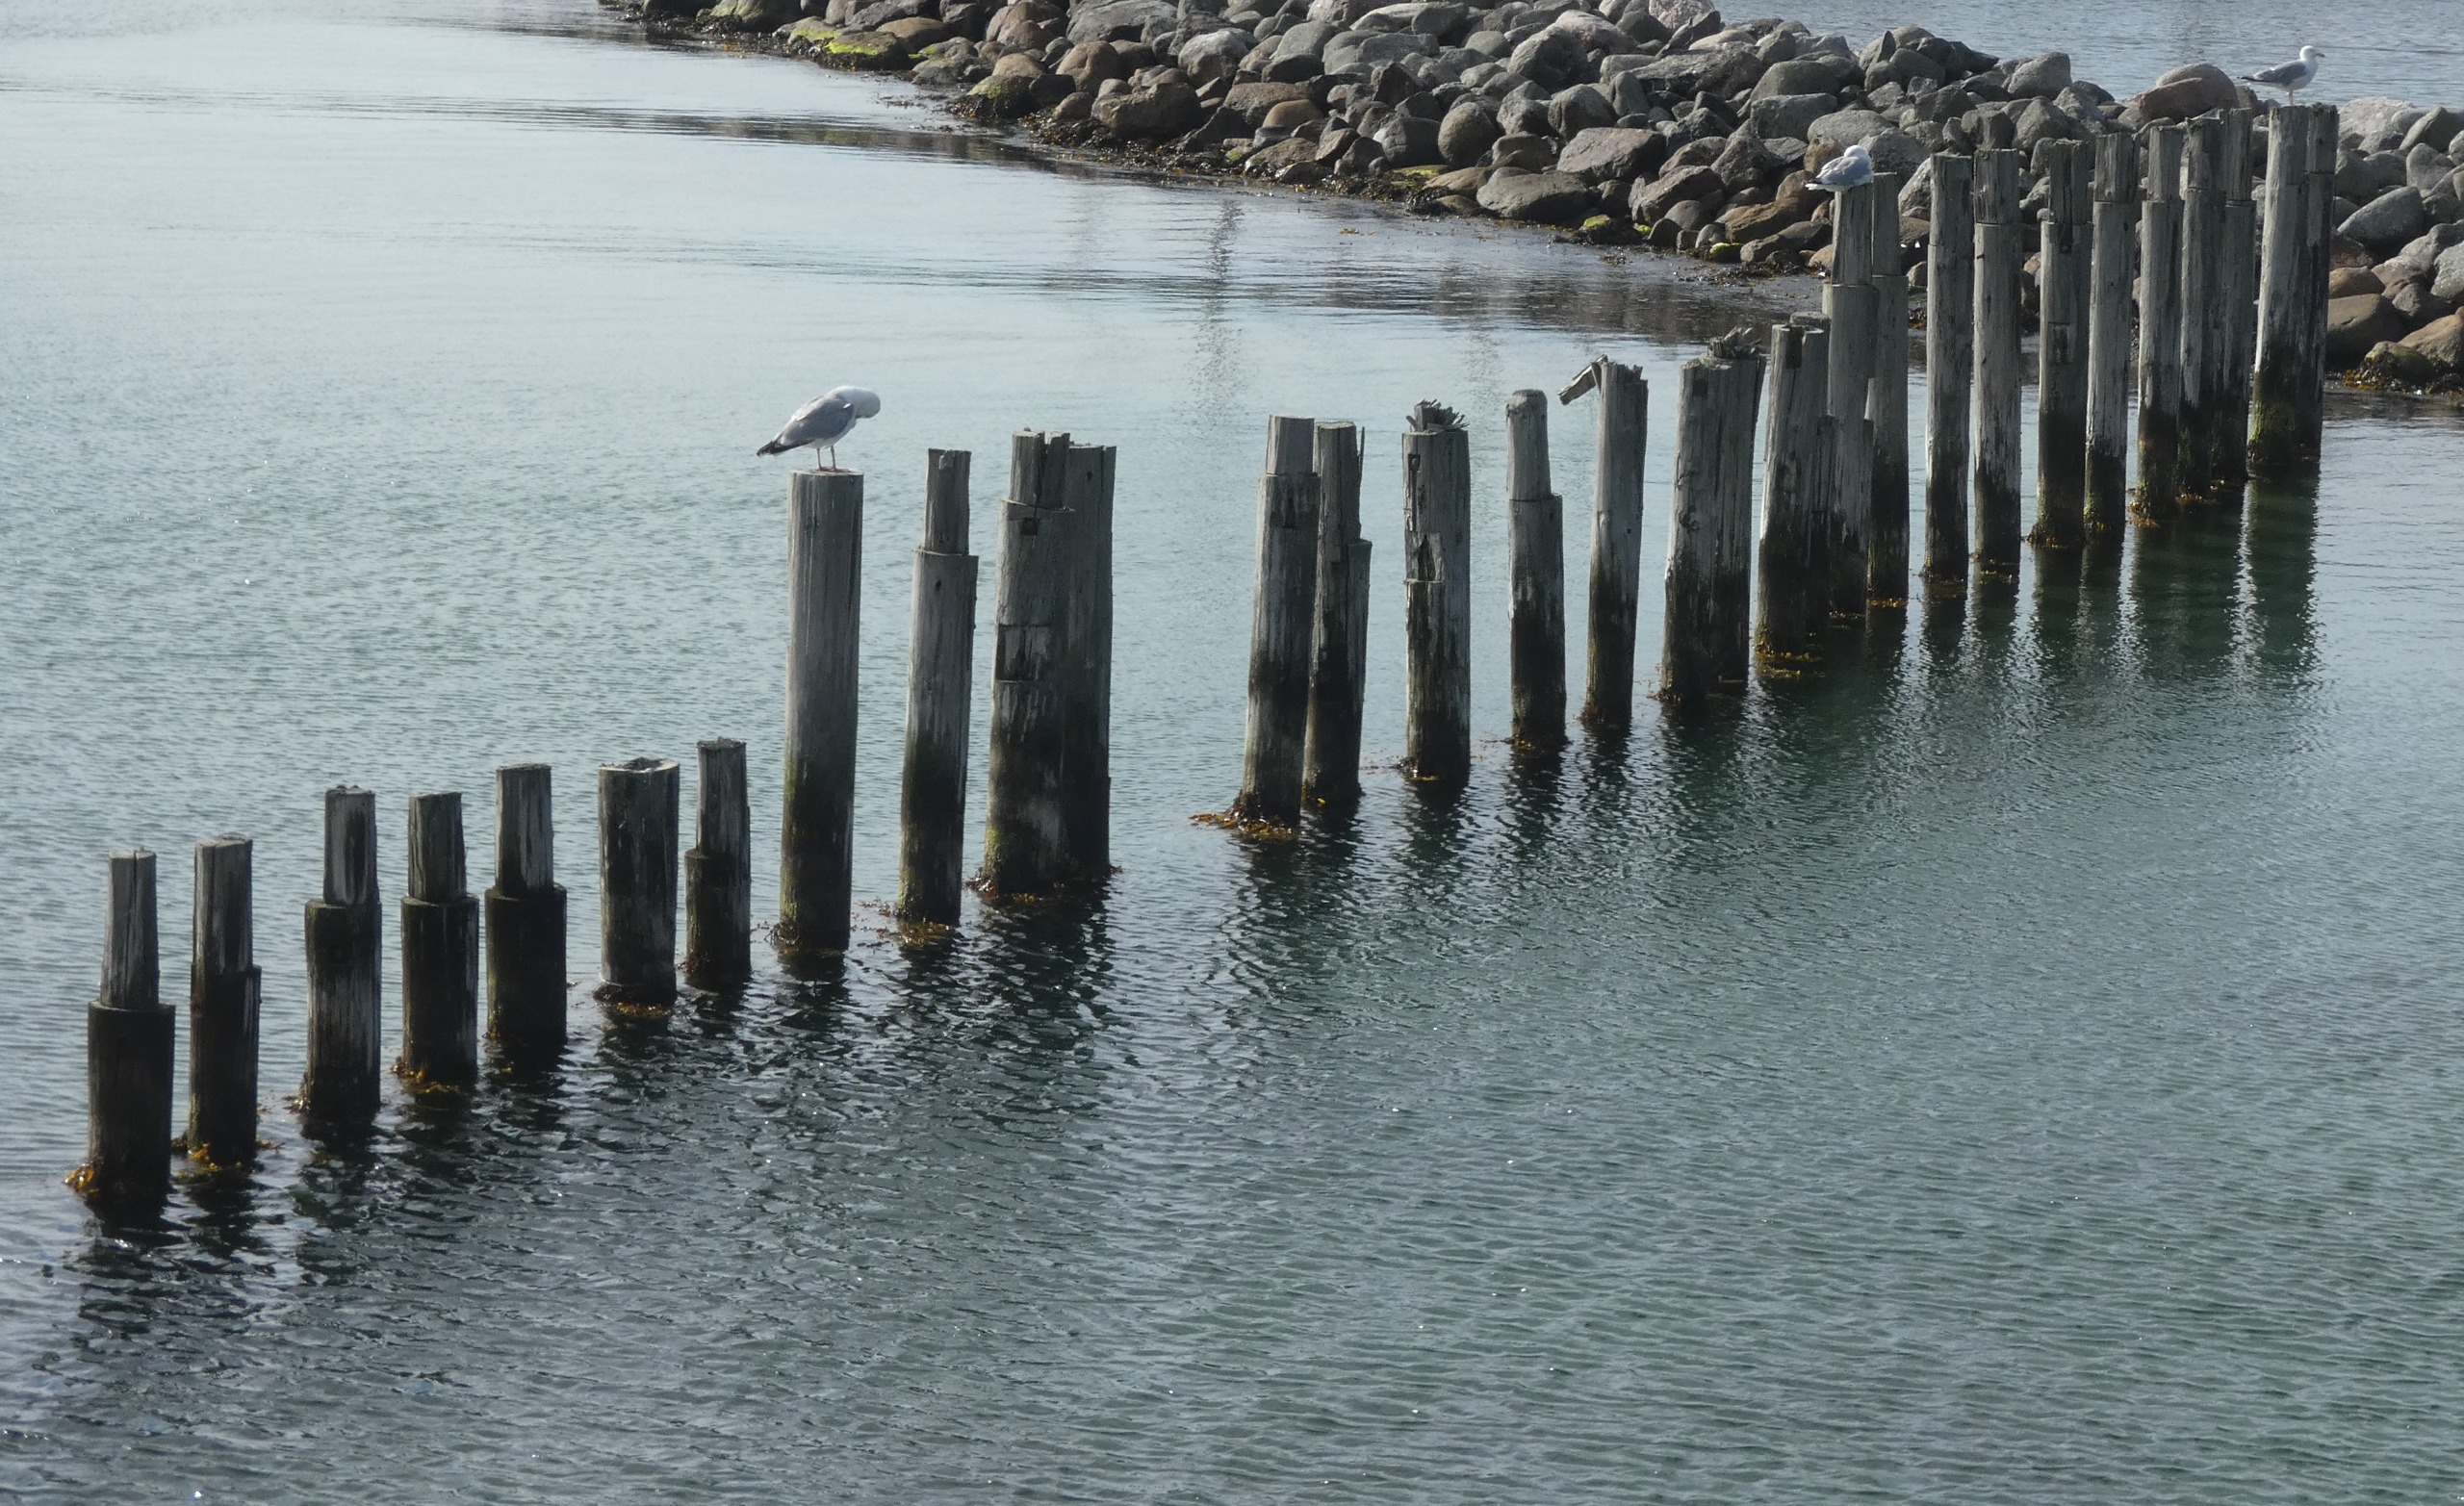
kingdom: Animalia
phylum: Chordata
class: Aves
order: Charadriiformes
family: Laridae
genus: Larus
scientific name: Larus argentatus
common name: Sølvmåge
